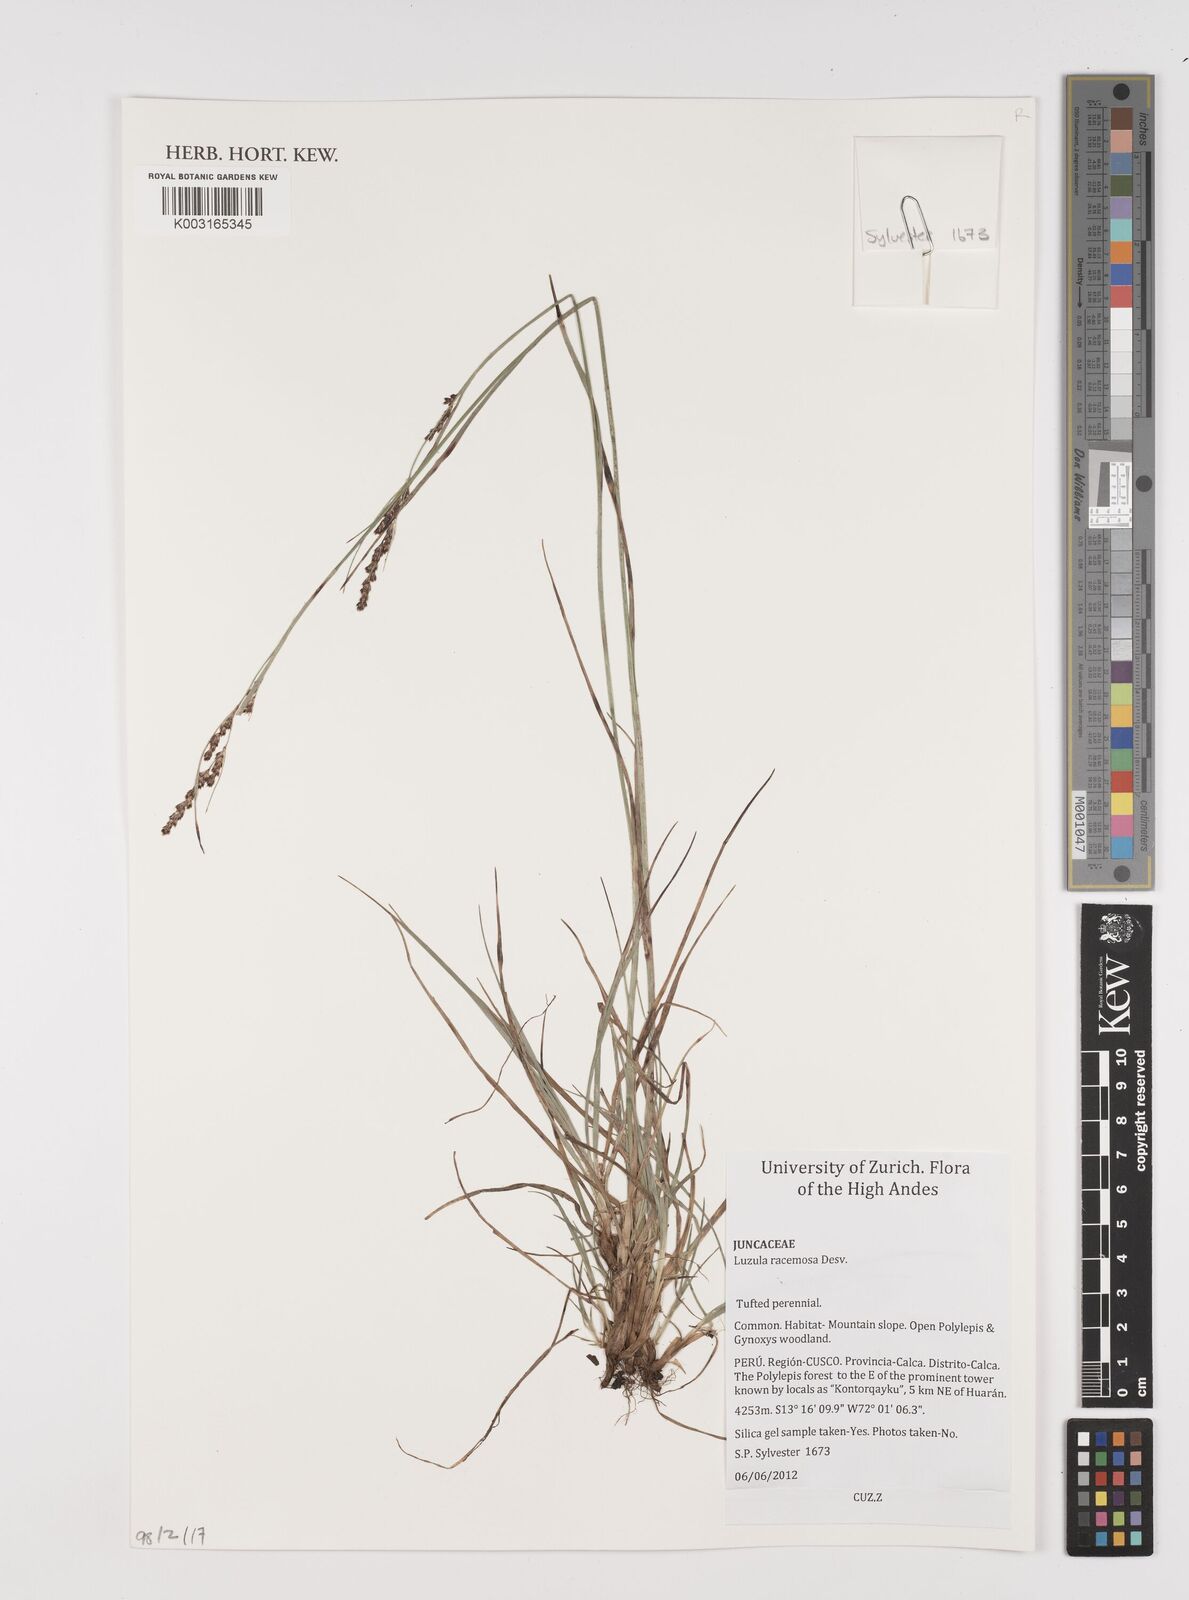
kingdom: Plantae
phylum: Tracheophyta
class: Liliopsida
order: Poales
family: Juncaceae
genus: Luzula
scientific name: Luzula racemosa
